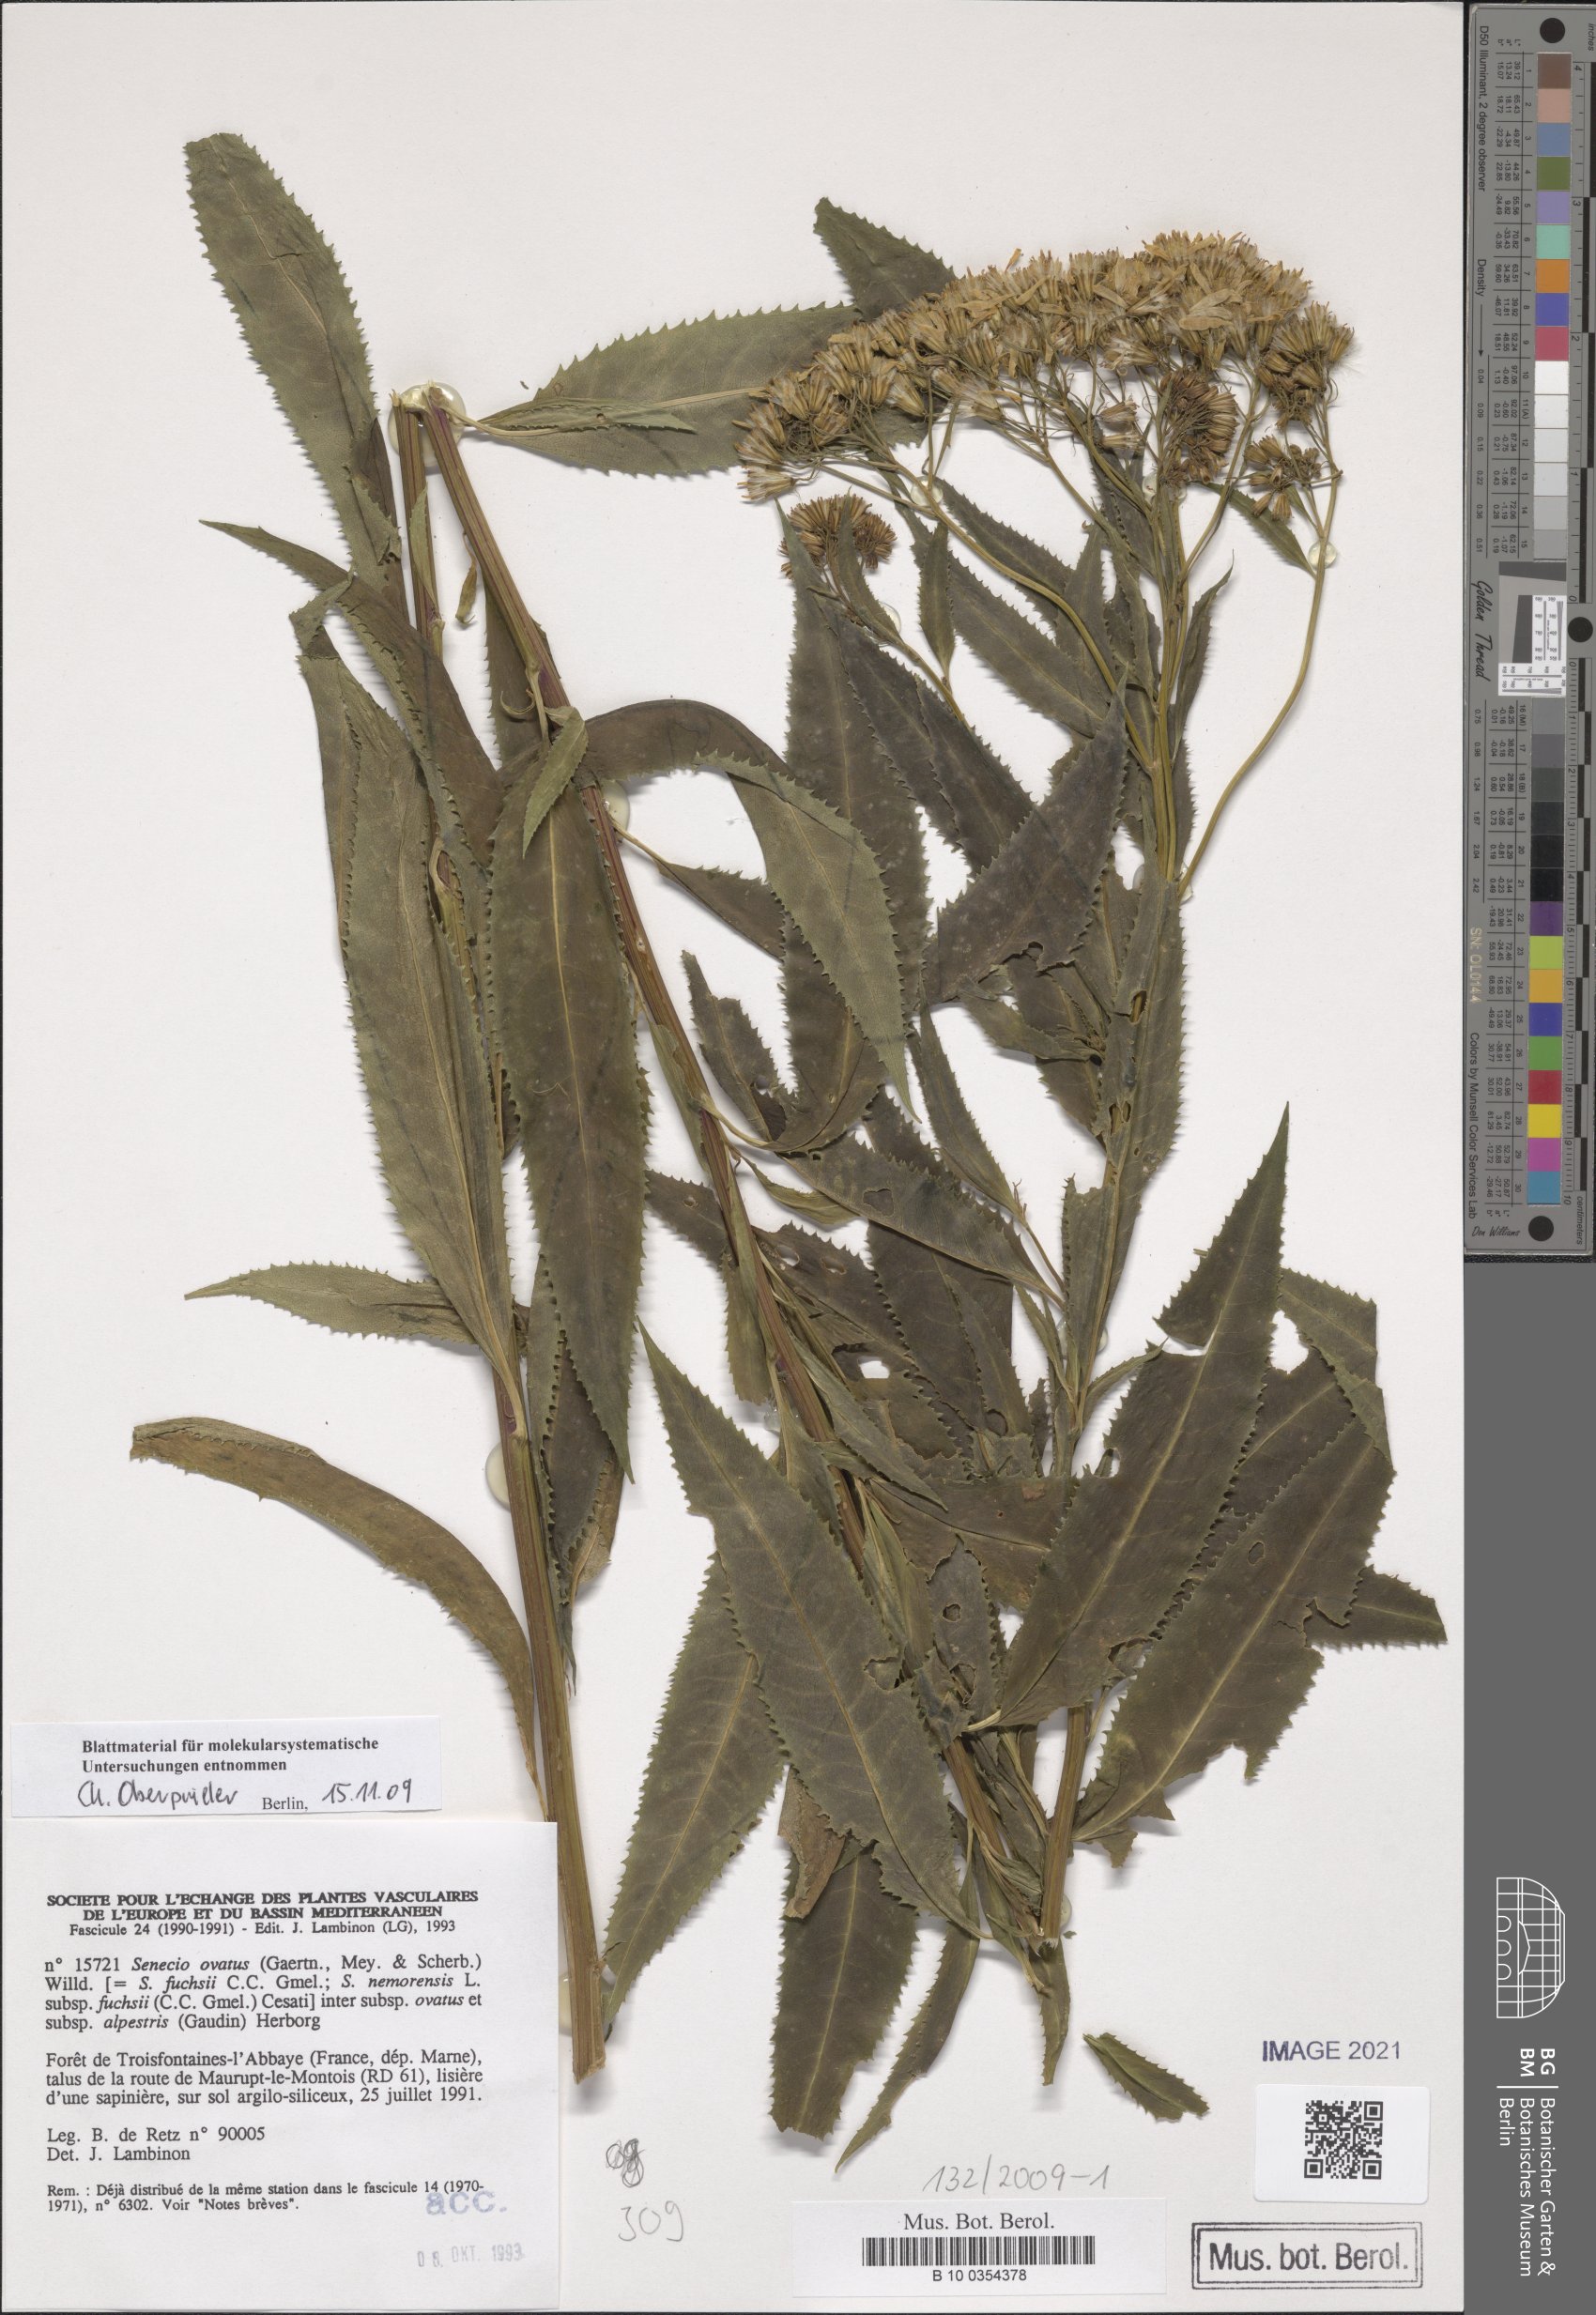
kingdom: Plantae
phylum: Tracheophyta
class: Magnoliopsida
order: Asterales
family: Asteraceae
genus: Senecio
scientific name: Senecio ovatus
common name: Wood ragwort
